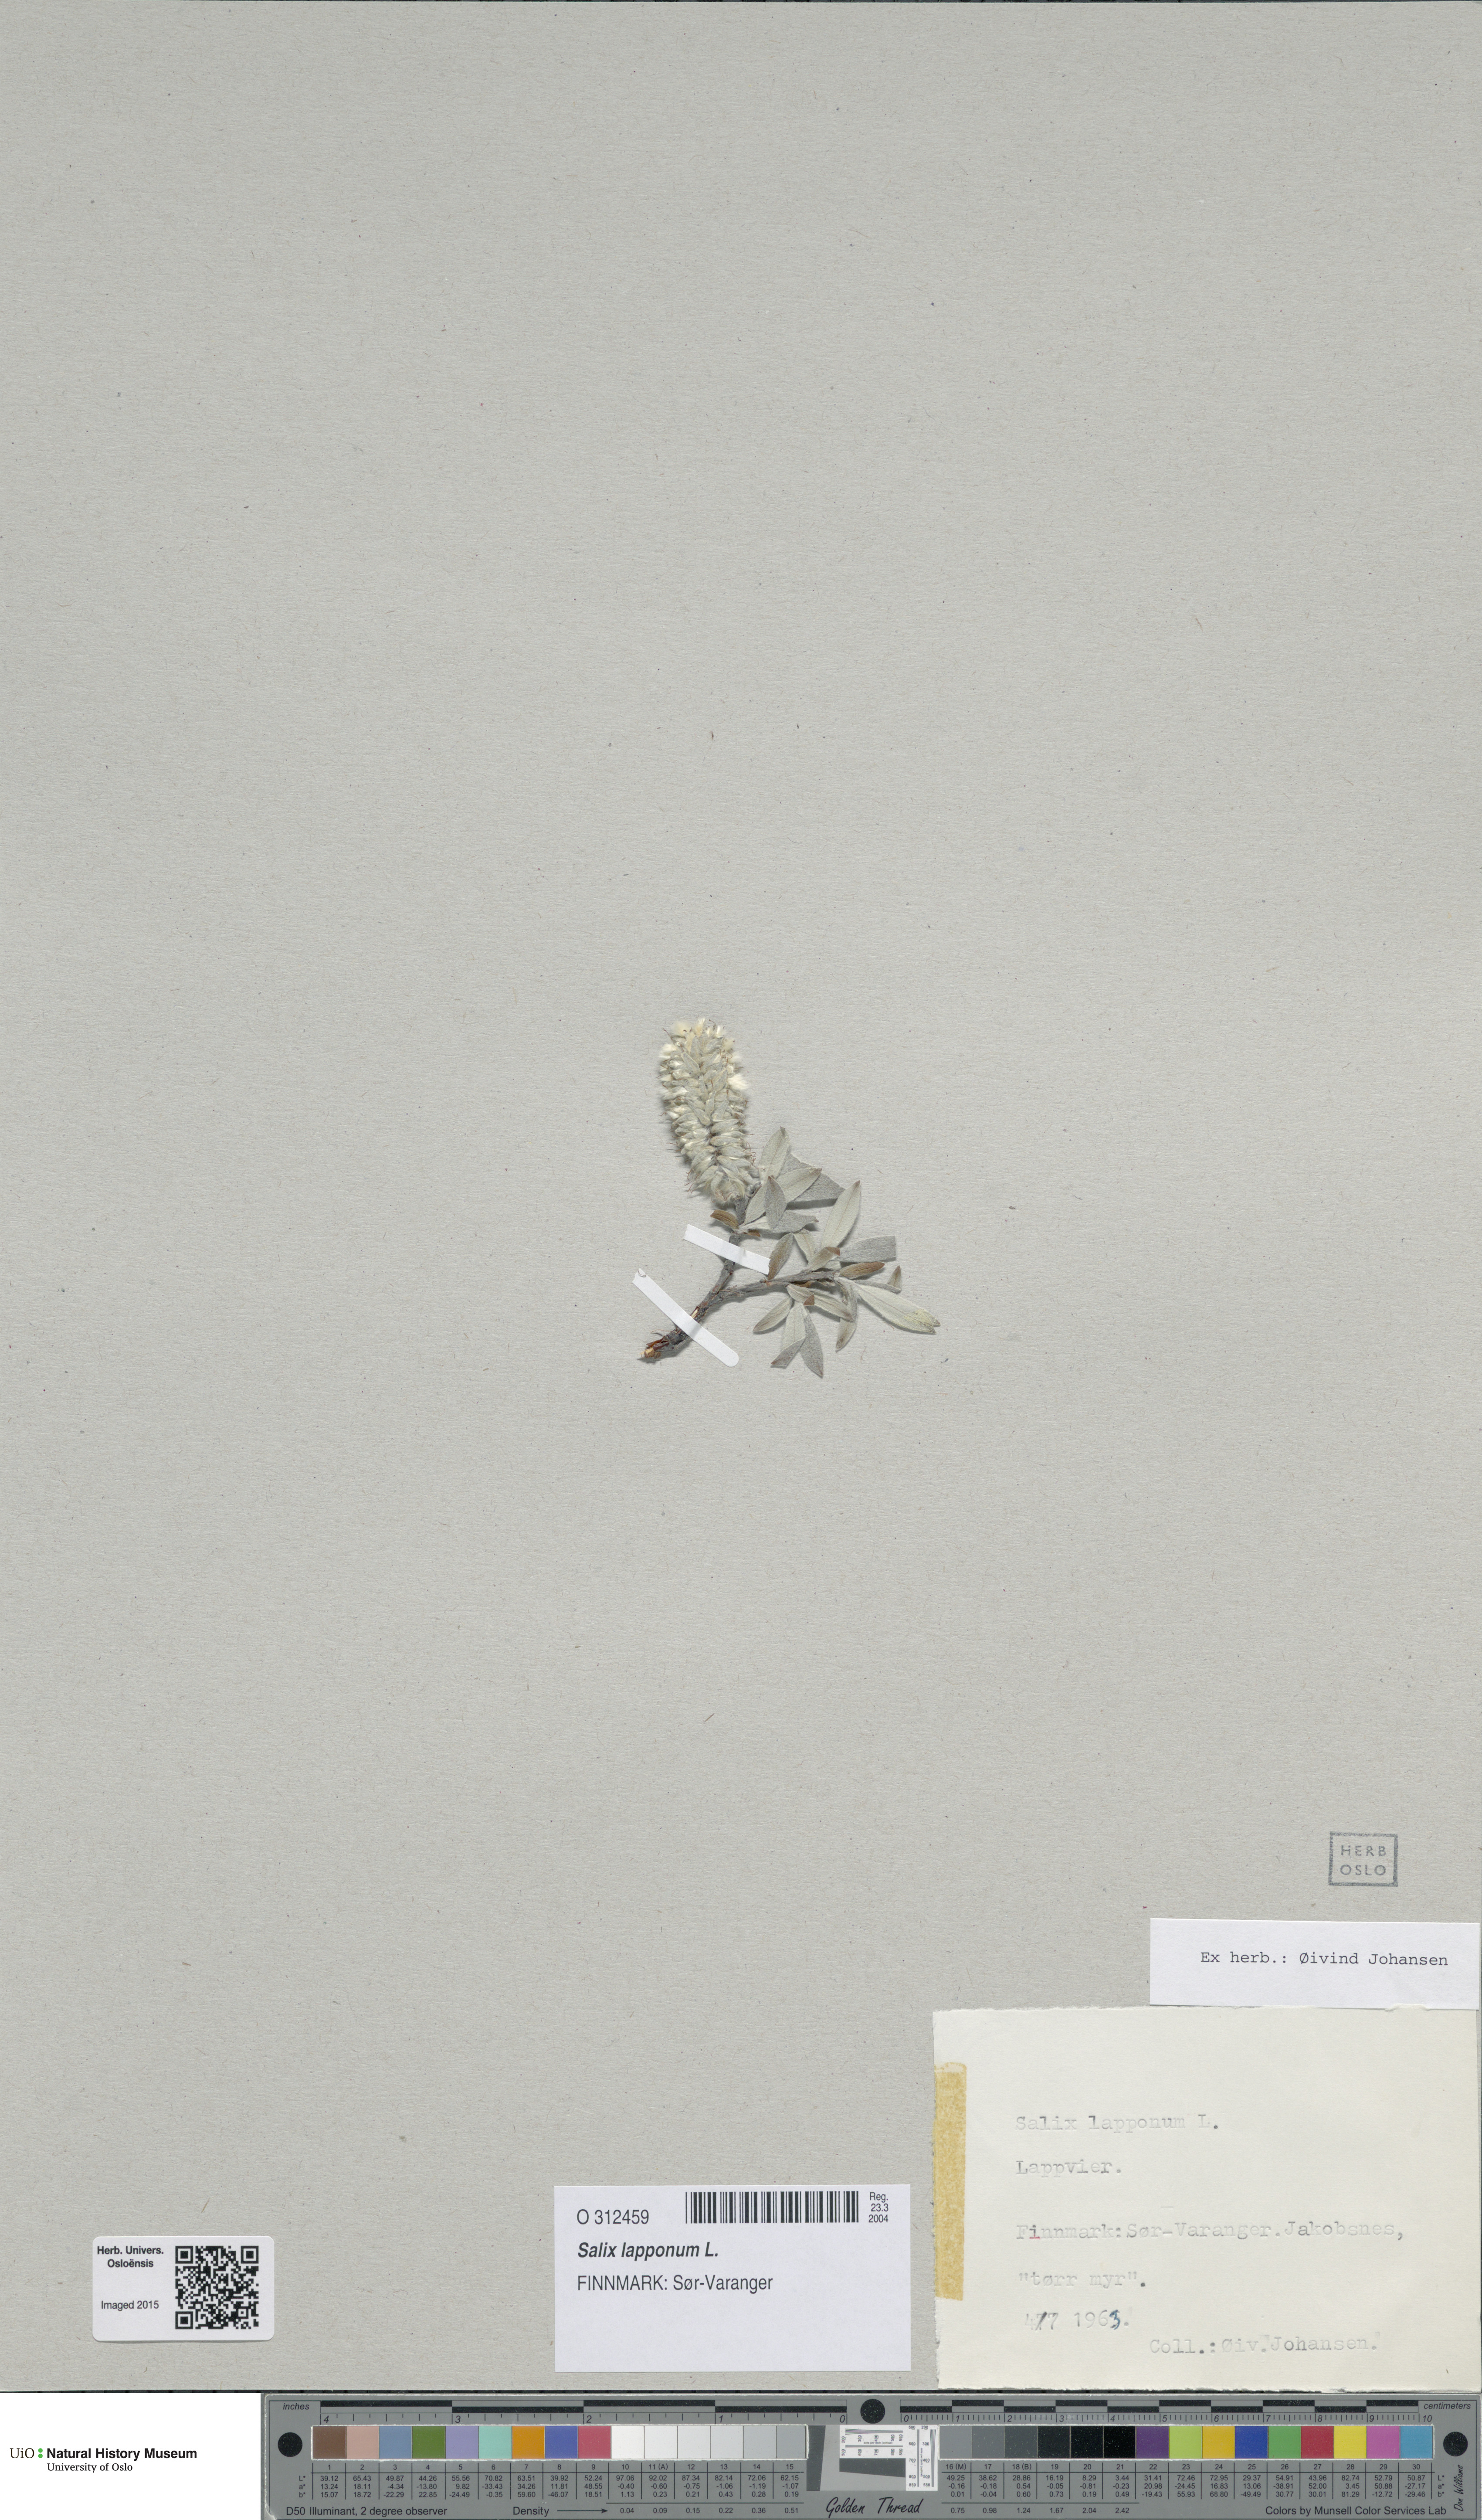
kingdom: Plantae
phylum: Tracheophyta
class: Magnoliopsida
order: Malpighiales
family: Salicaceae
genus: Salix
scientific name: Salix lapponum
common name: Downy willow
